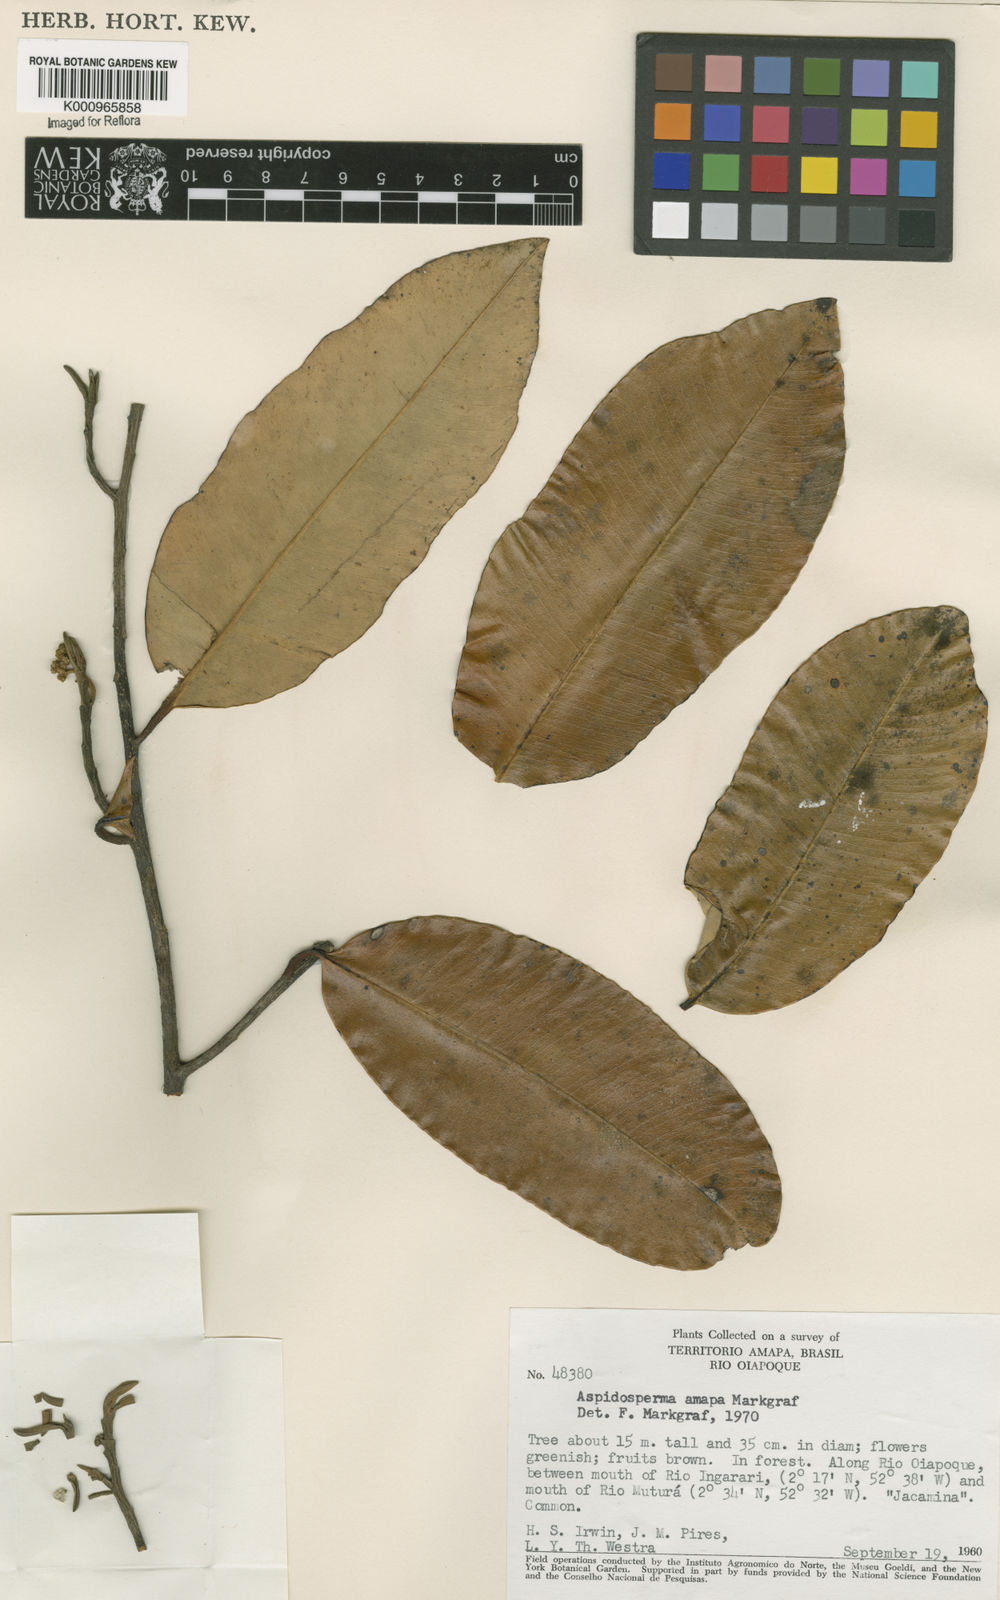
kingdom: Plantae
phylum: Tracheophyta
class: Magnoliopsida
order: Gentianales
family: Apocynaceae
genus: Aspidosperma
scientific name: Aspidosperma
